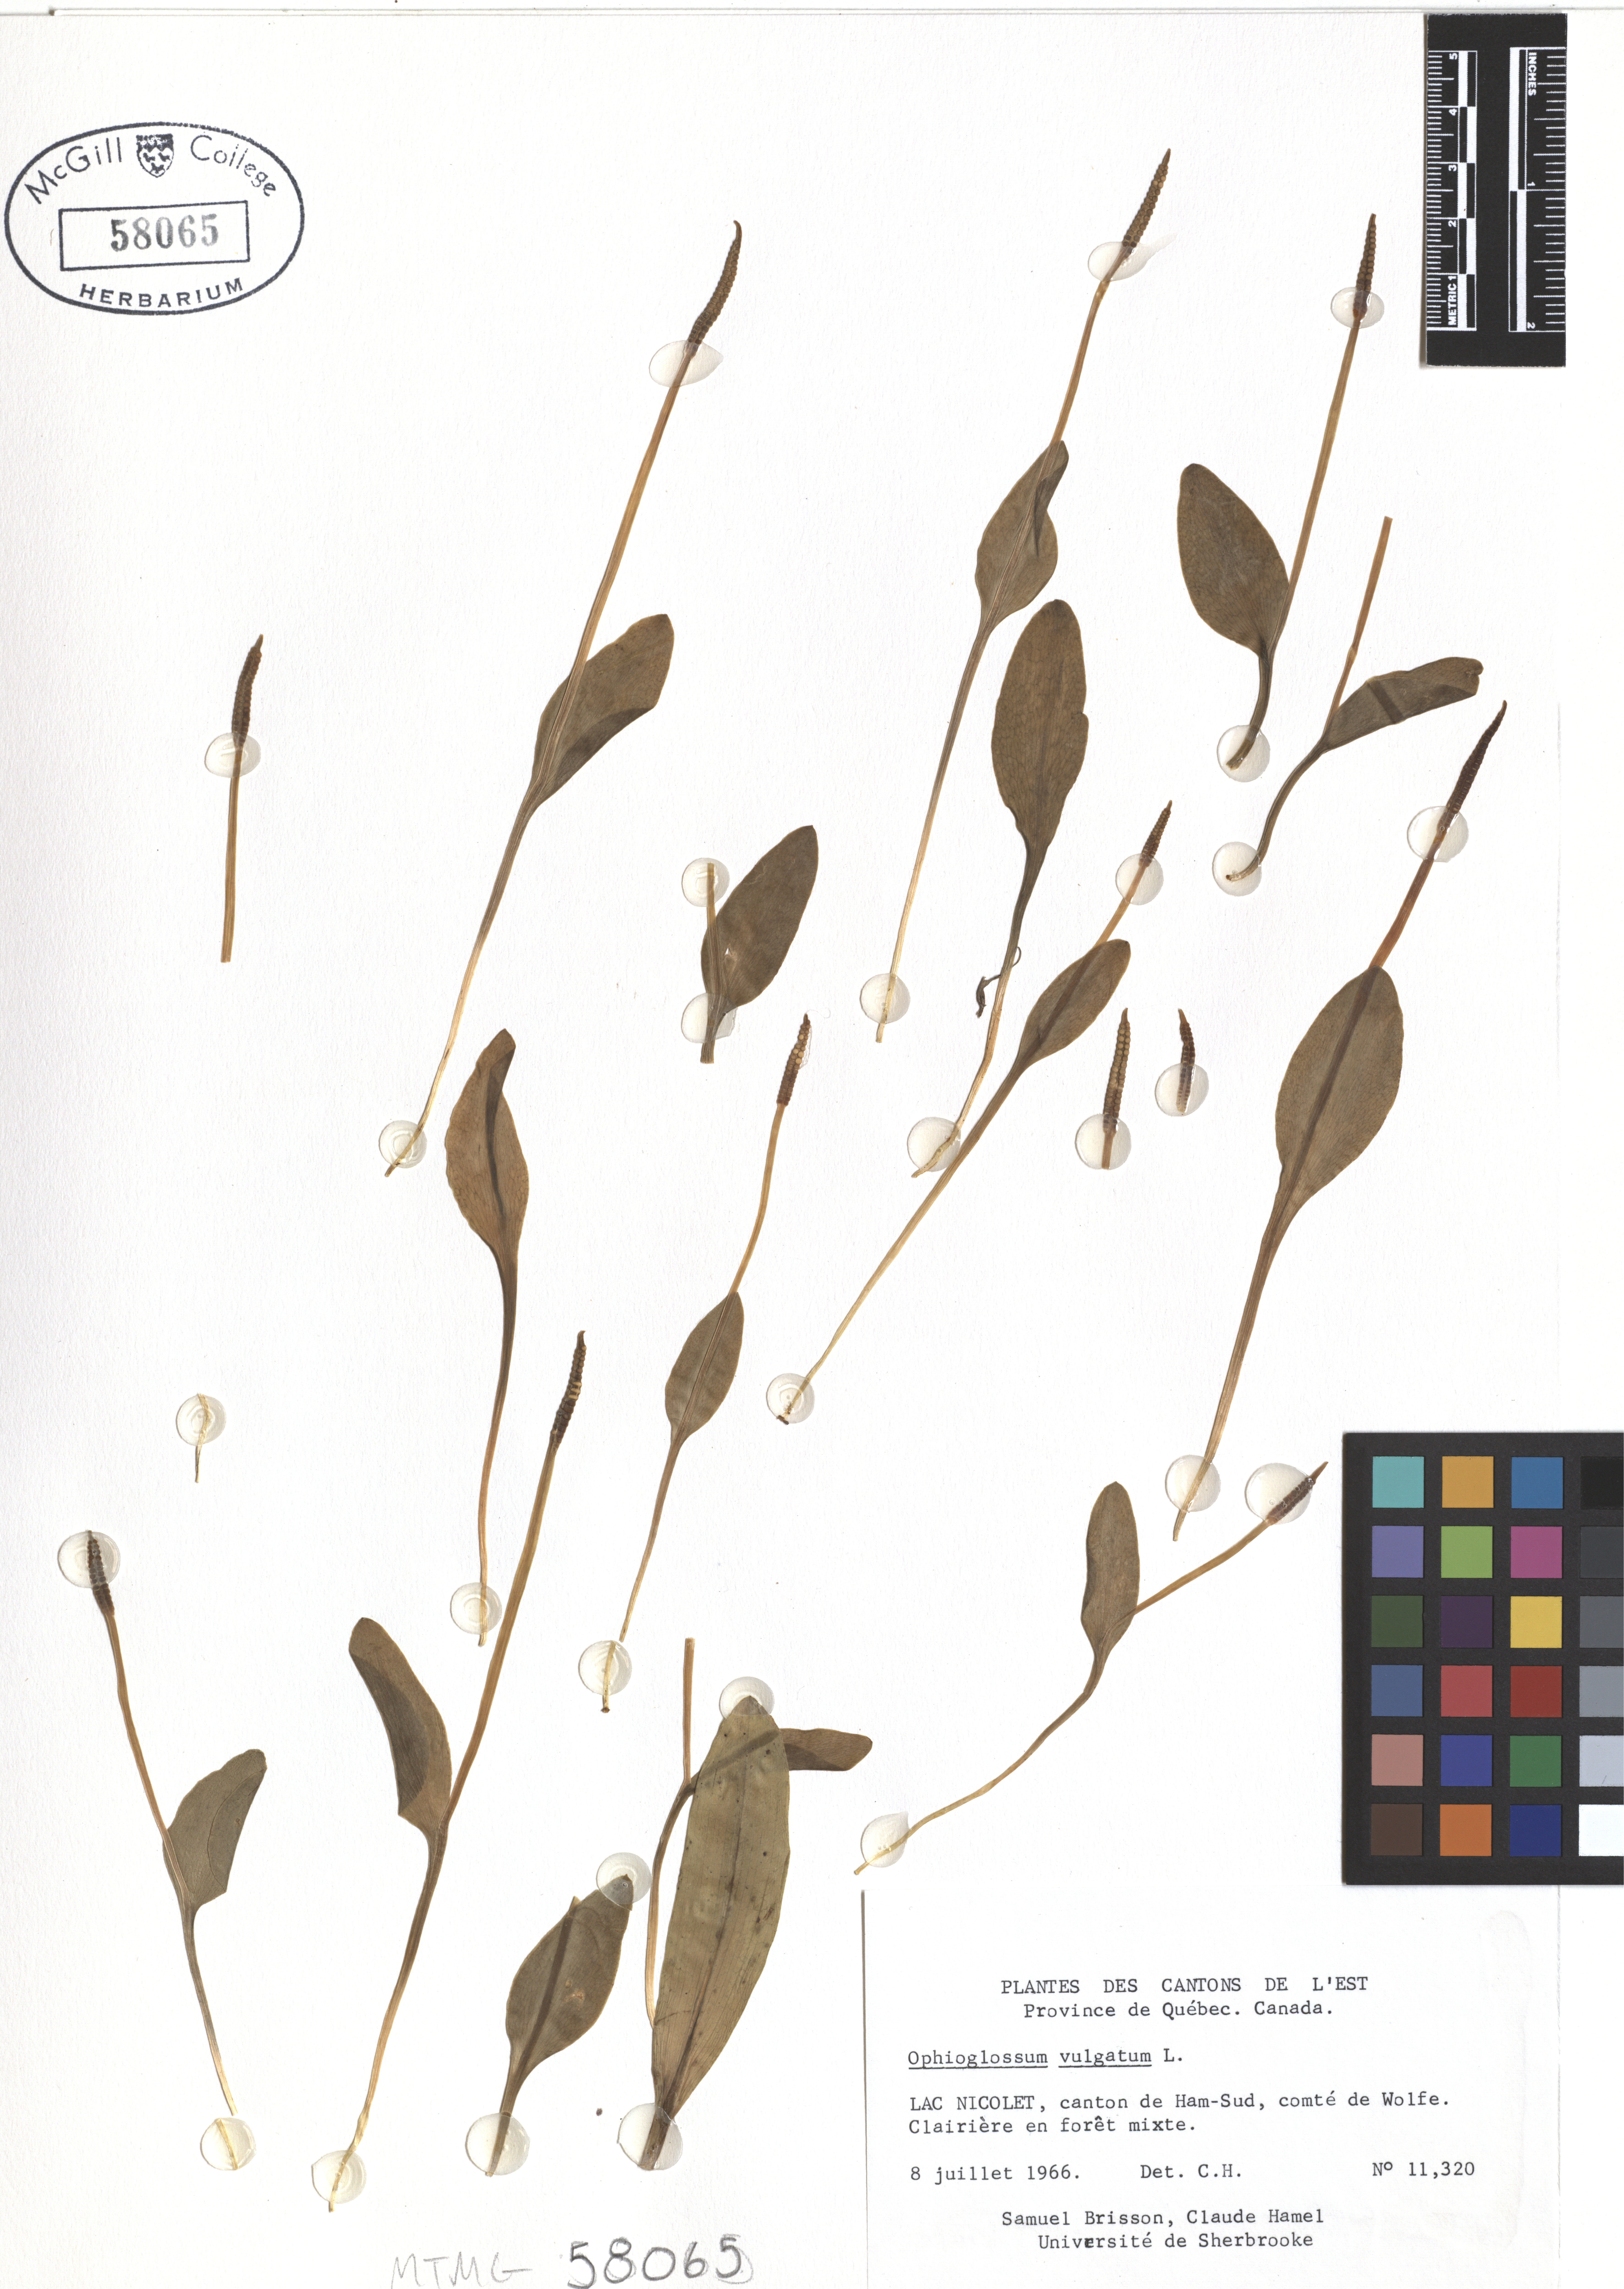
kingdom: Plantae
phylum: Tracheophyta
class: Polypodiopsida
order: Ophioglossales
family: Ophioglossaceae
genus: Ophioglossum
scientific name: Ophioglossum vulgatum
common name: Adder's-tongue
